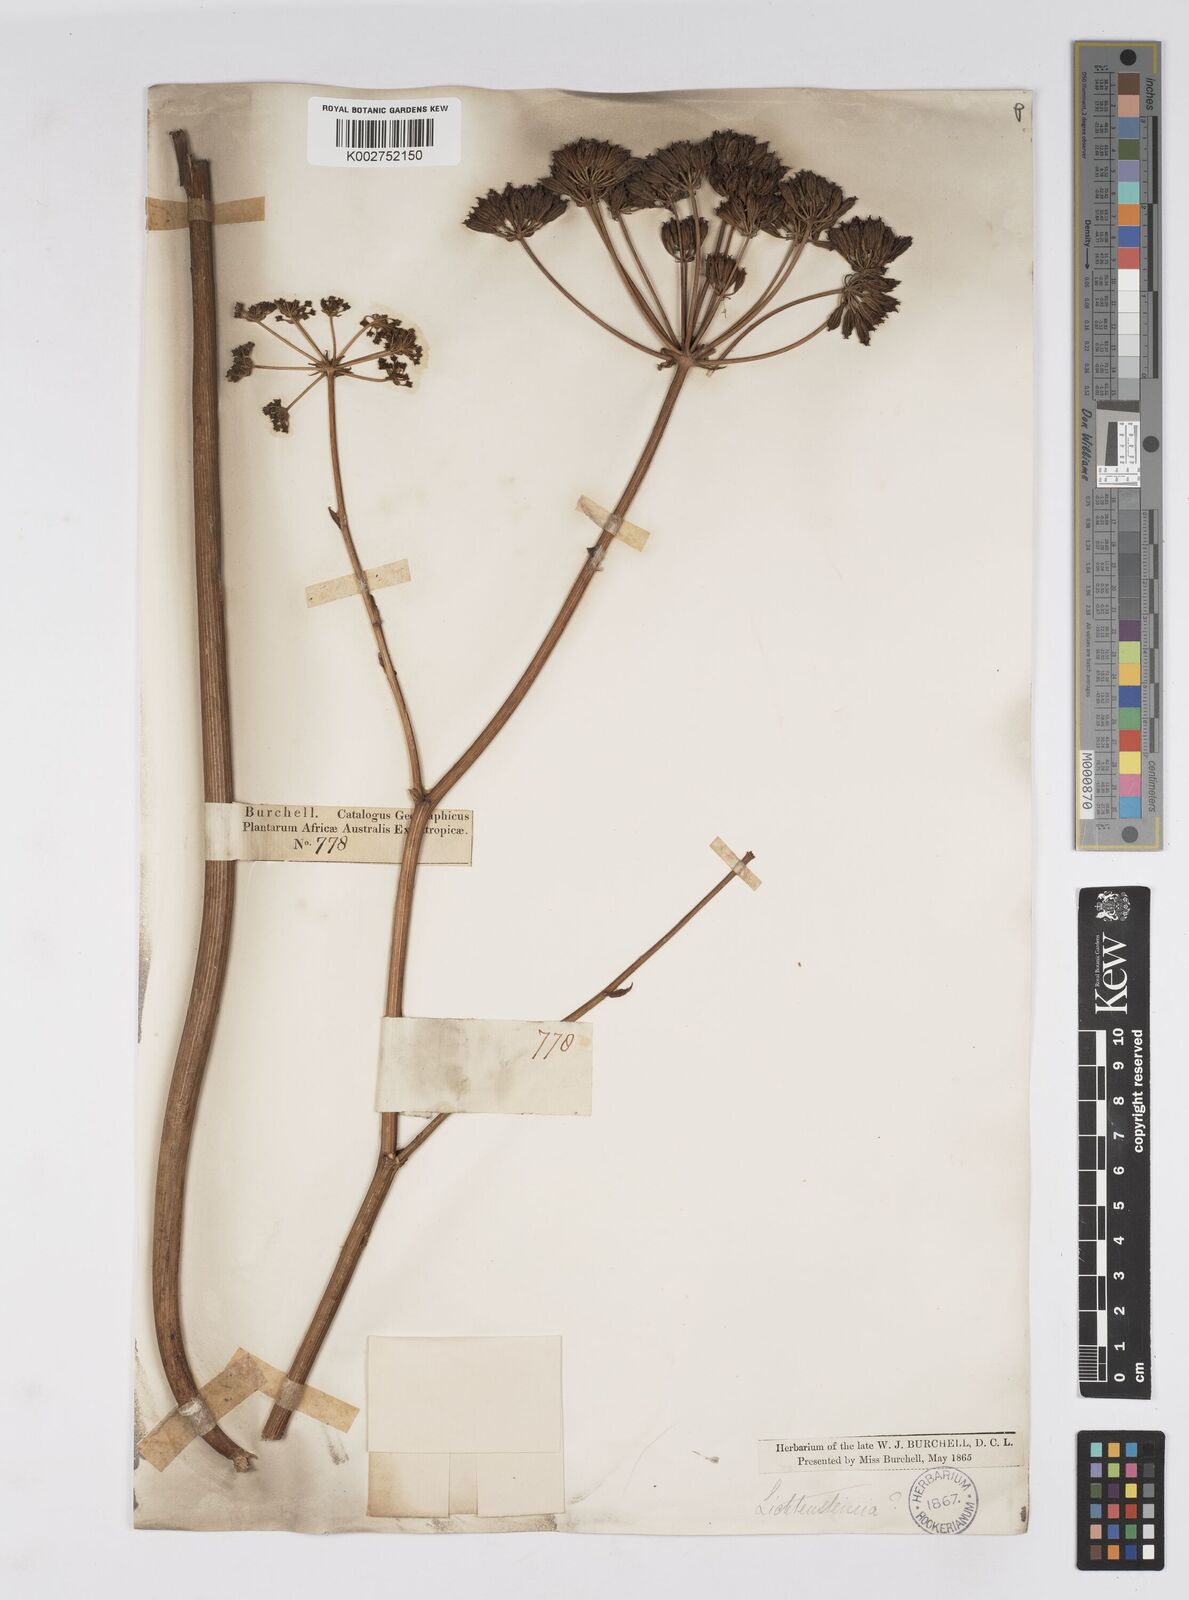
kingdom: Plantae
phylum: Tracheophyta
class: Magnoliopsida
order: Apiales
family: Apiaceae
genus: Lichtensteinia
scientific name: Lichtensteinia
